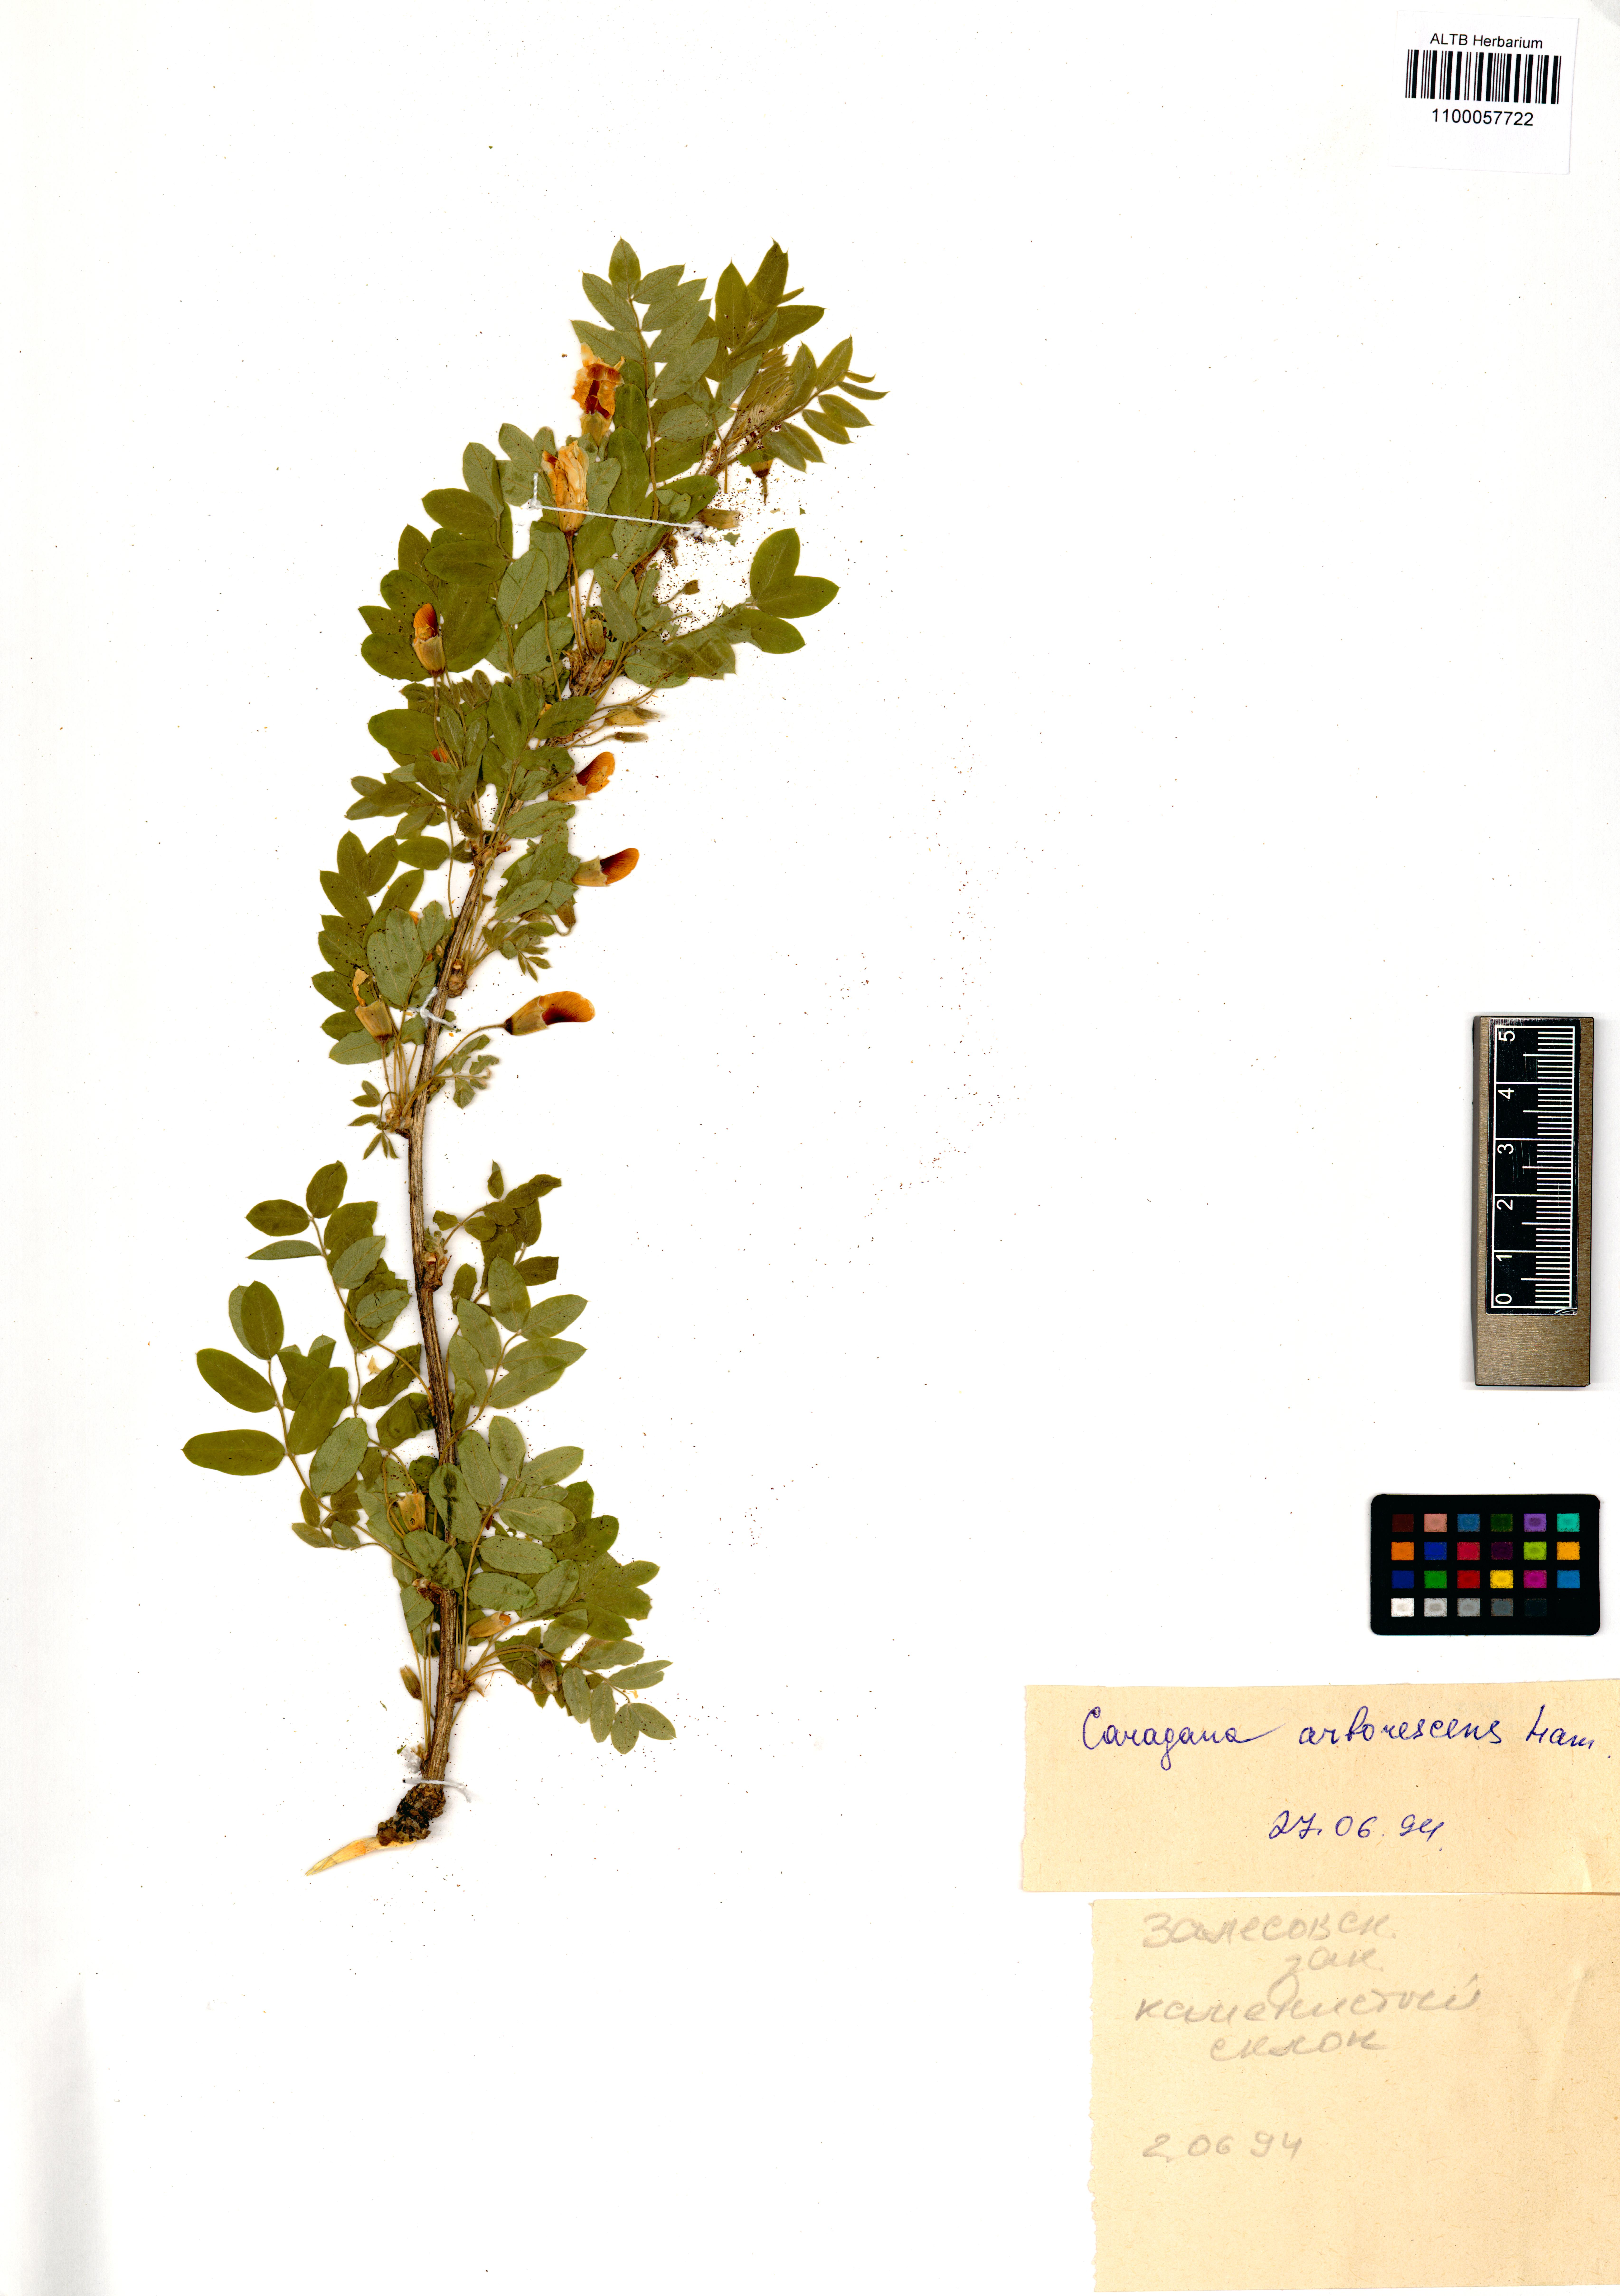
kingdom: Plantae
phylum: Tracheophyta
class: Magnoliopsida
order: Fabales
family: Fabaceae
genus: Caragana
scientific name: Caragana arborescens
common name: Siberian peashrub
